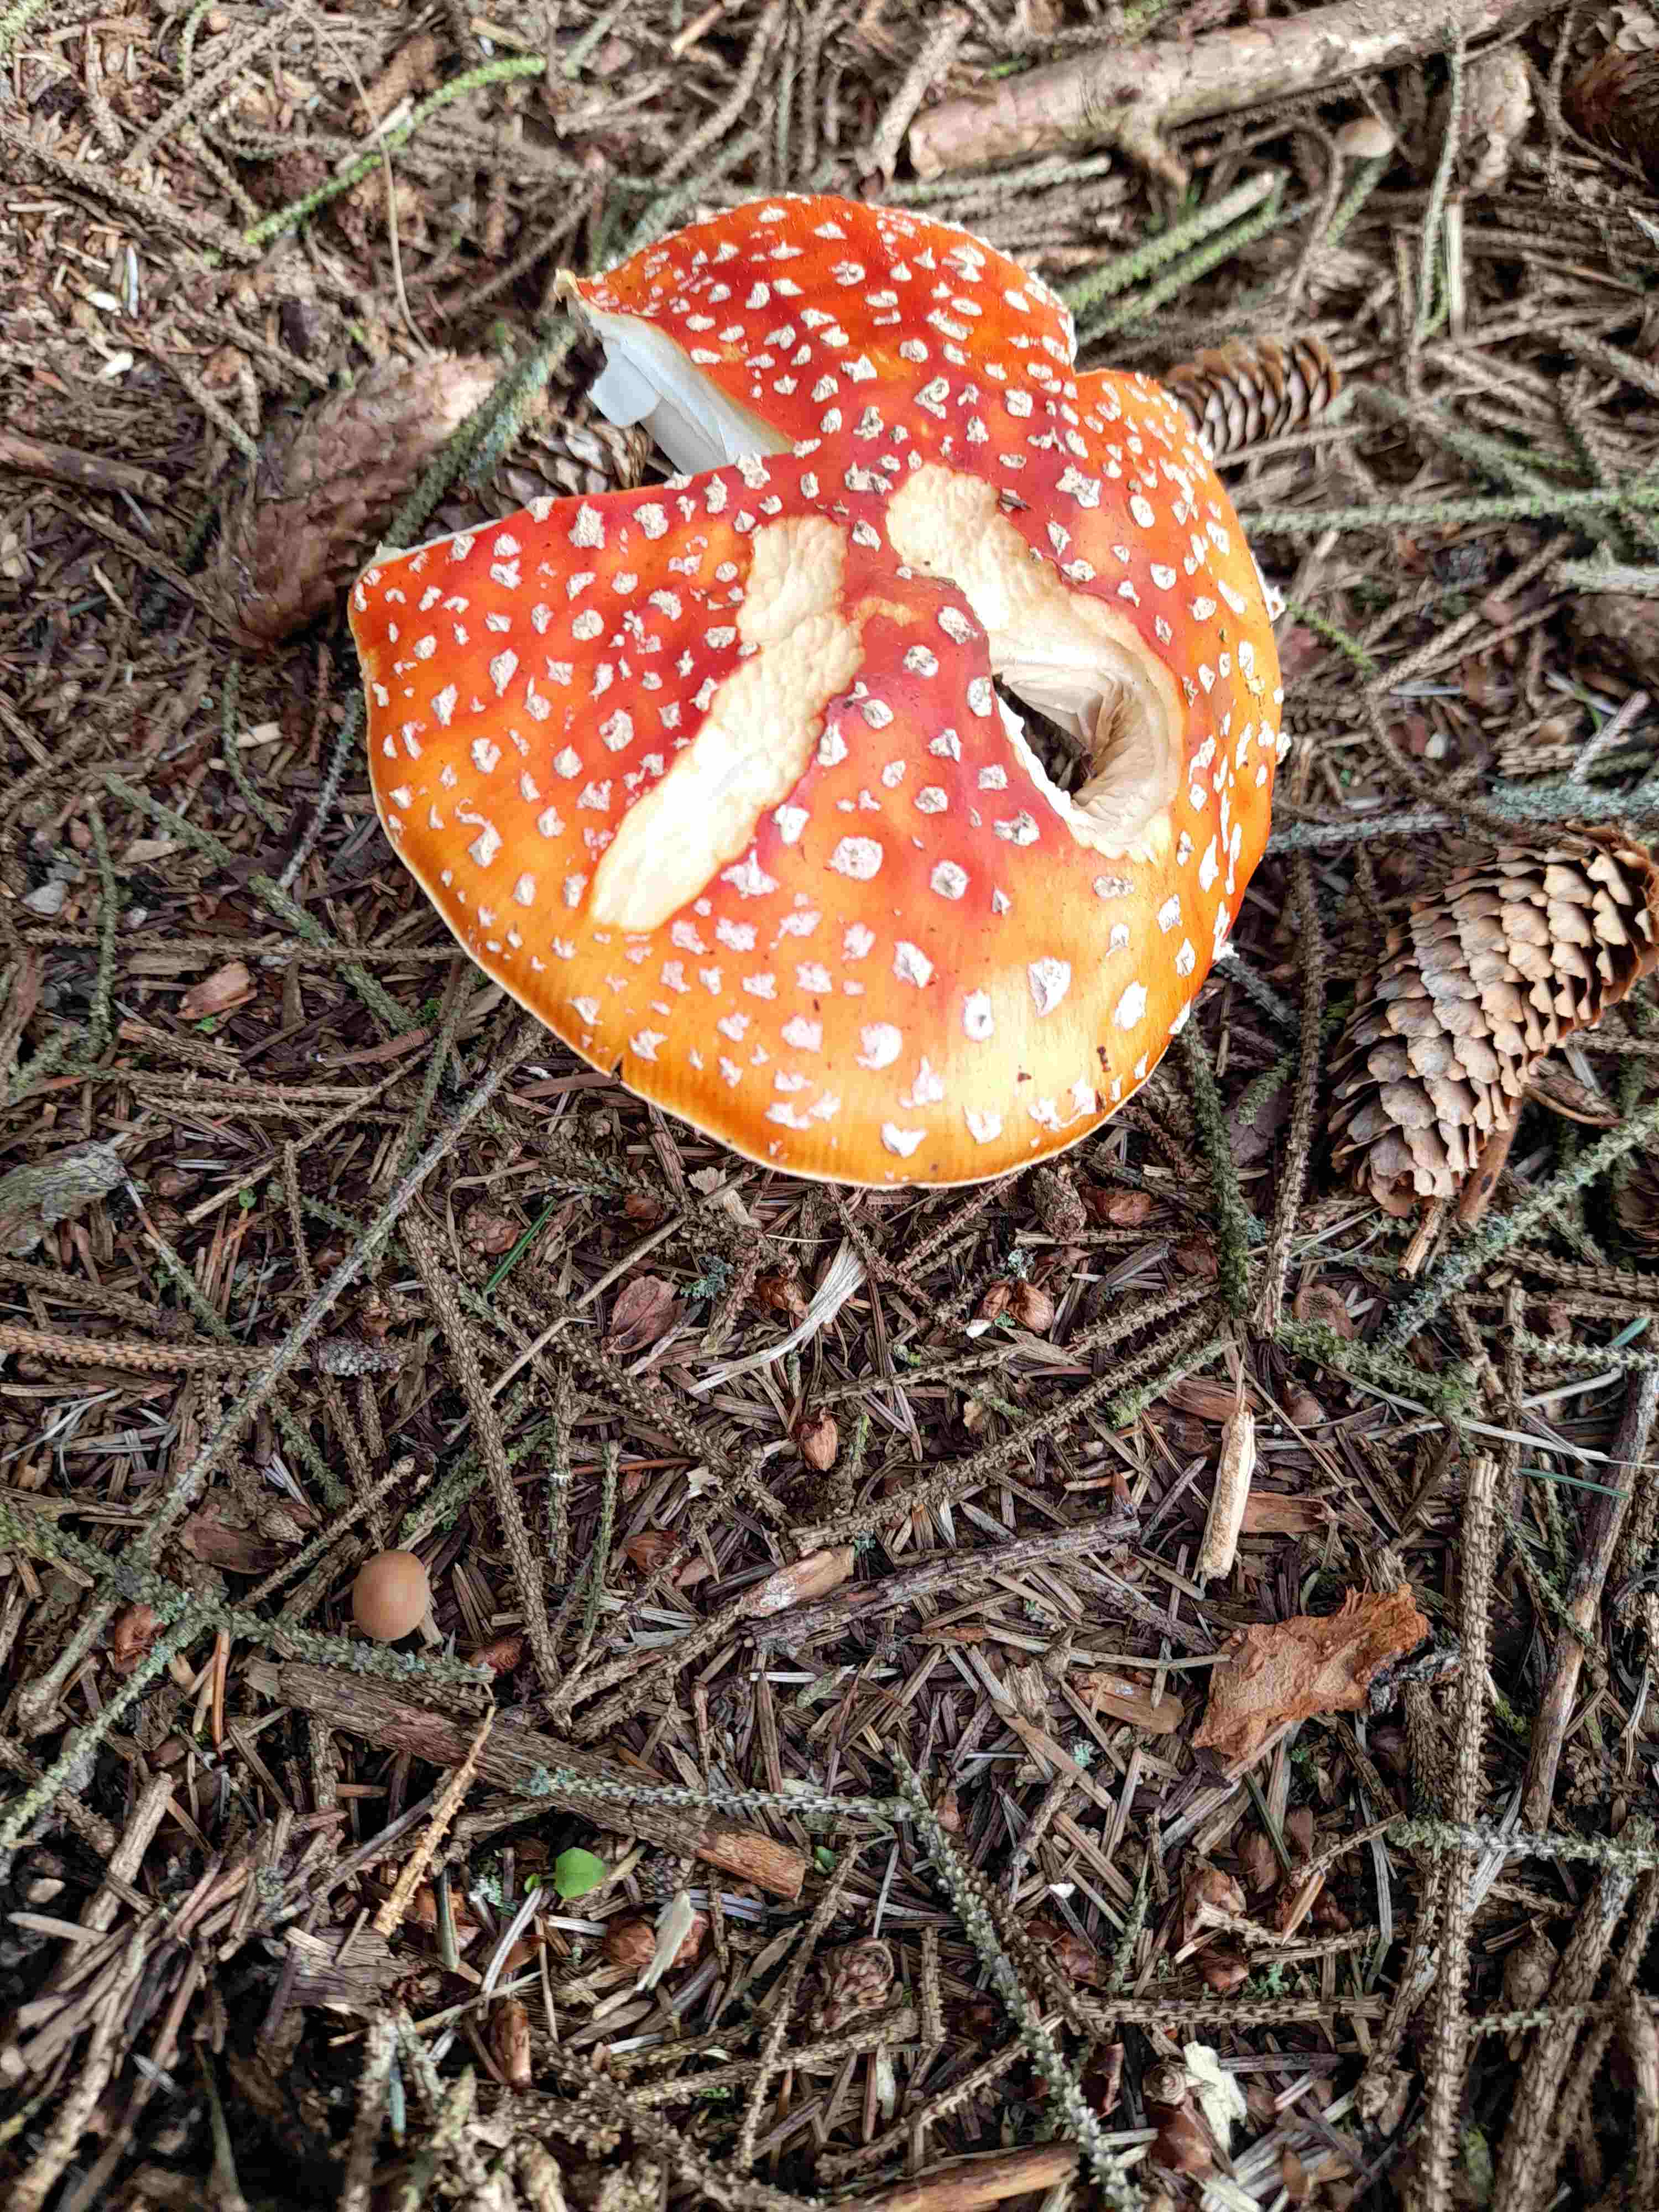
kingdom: Fungi
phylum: Basidiomycota
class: Agaricomycetes
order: Agaricales
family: Amanitaceae
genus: Amanita
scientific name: Amanita muscaria
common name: rød fluesvamp
